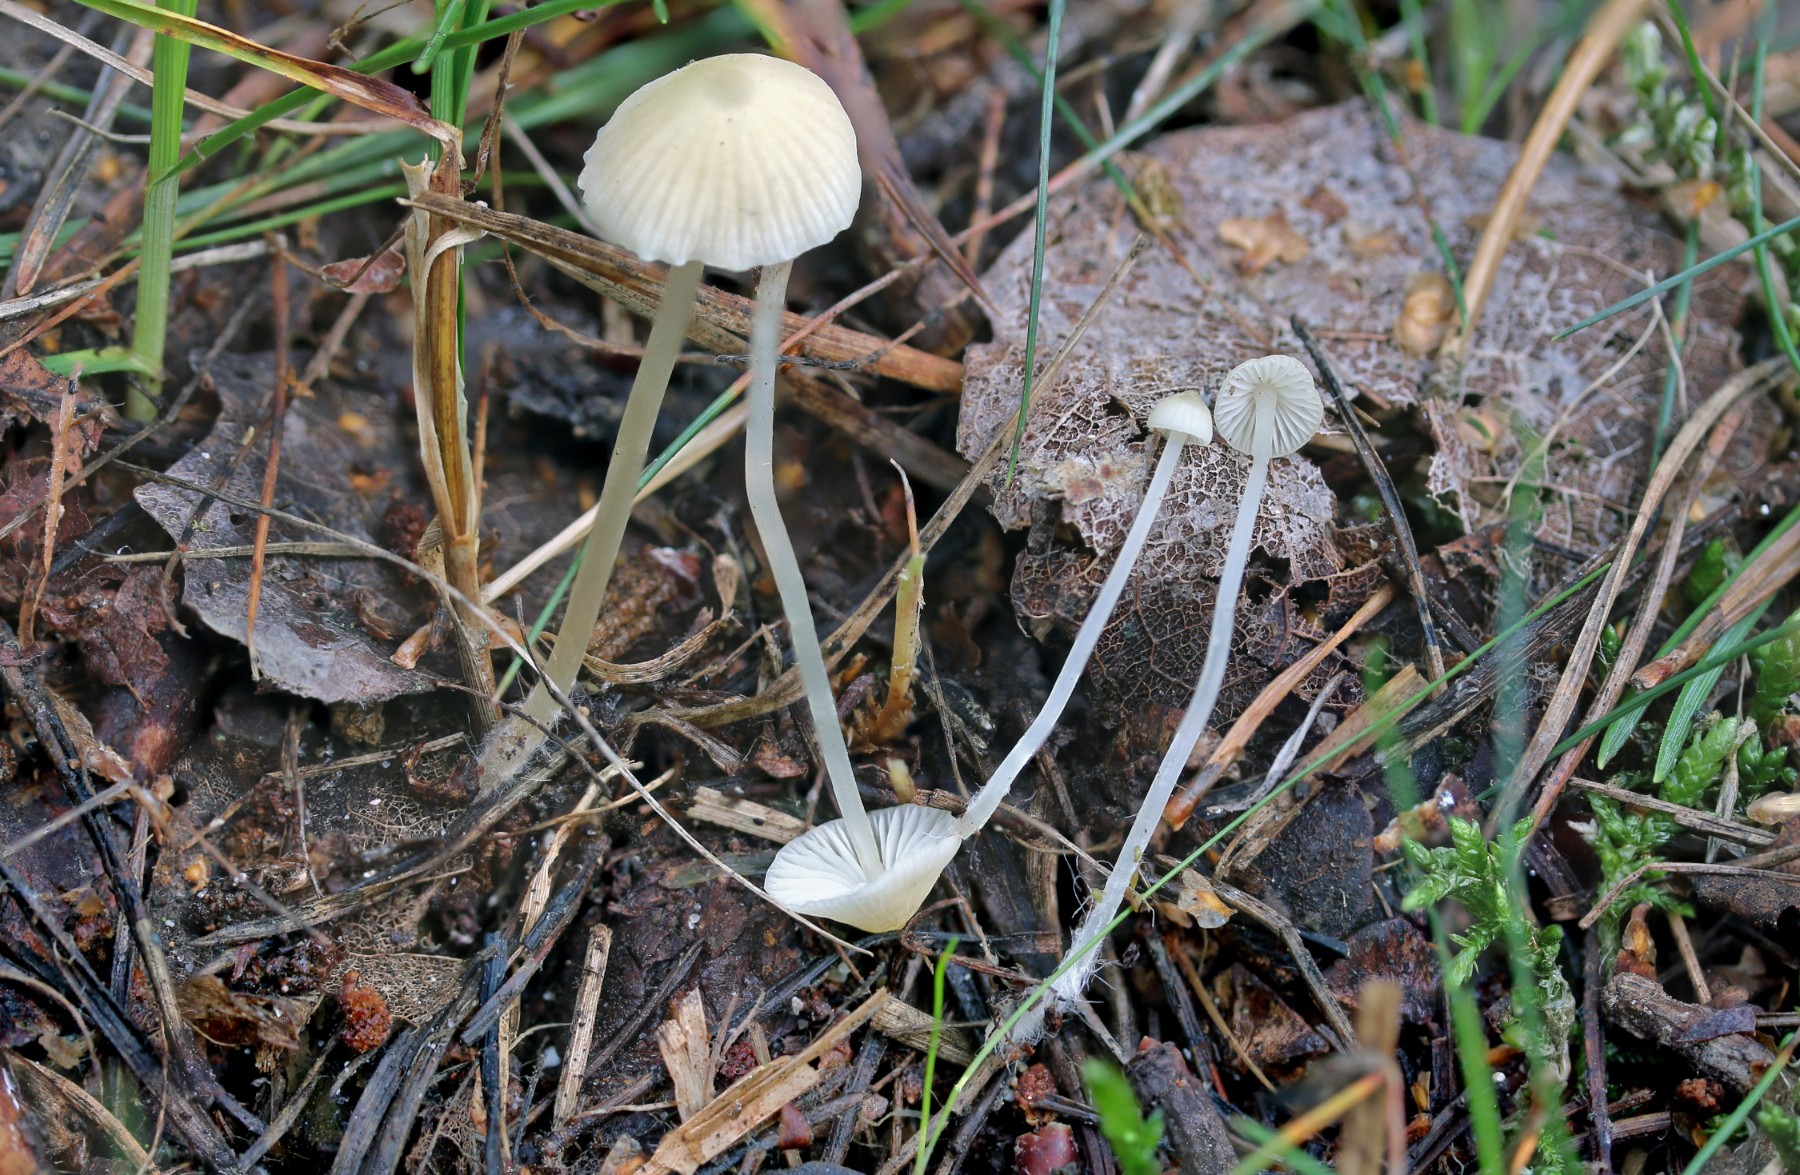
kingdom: Fungi
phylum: Basidiomycota
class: Agaricomycetes
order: Agaricales
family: Mycenaceae
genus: Atheniella
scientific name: Atheniella flavoalba
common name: gulhvid huesvamp
